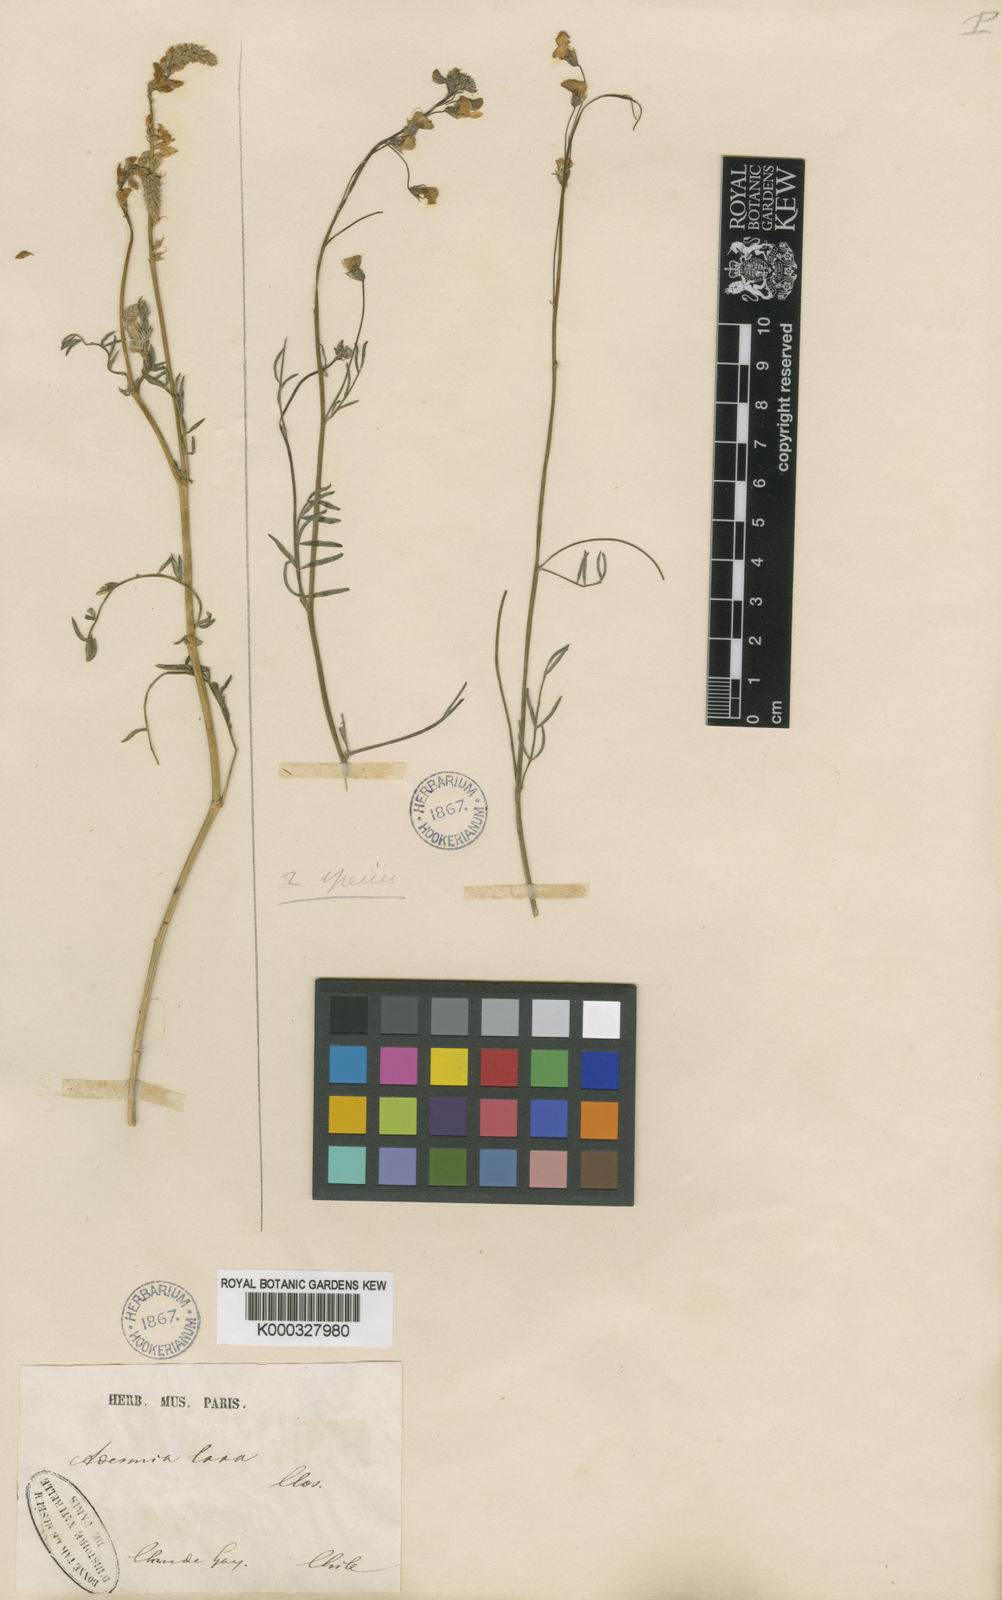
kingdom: Plantae
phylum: Tracheophyta
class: Magnoliopsida
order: Fabales
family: Fabaceae
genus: Adesmia
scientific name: Adesmia laxa
